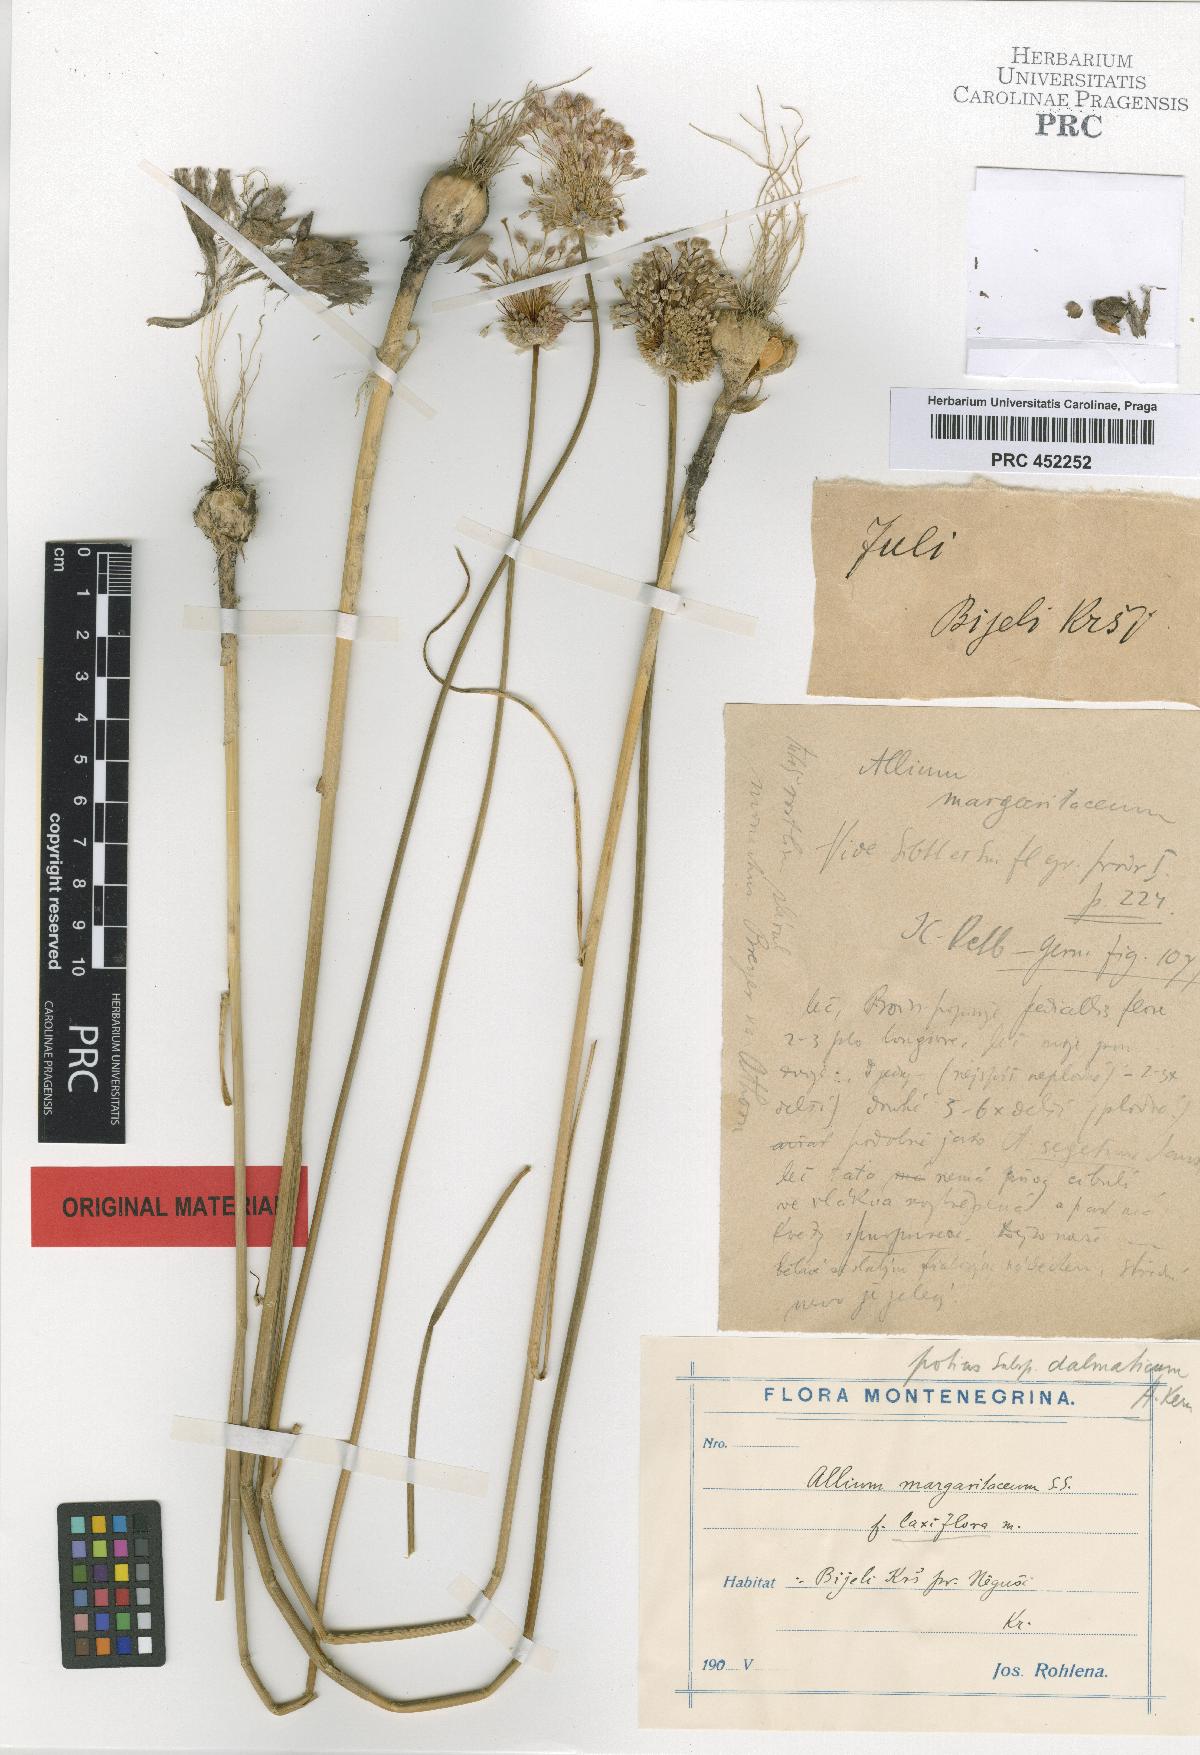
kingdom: Plantae
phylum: Tracheophyta
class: Liliopsida
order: Asparagales
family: Amaryllidaceae
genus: Allium
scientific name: Allium guttatum
